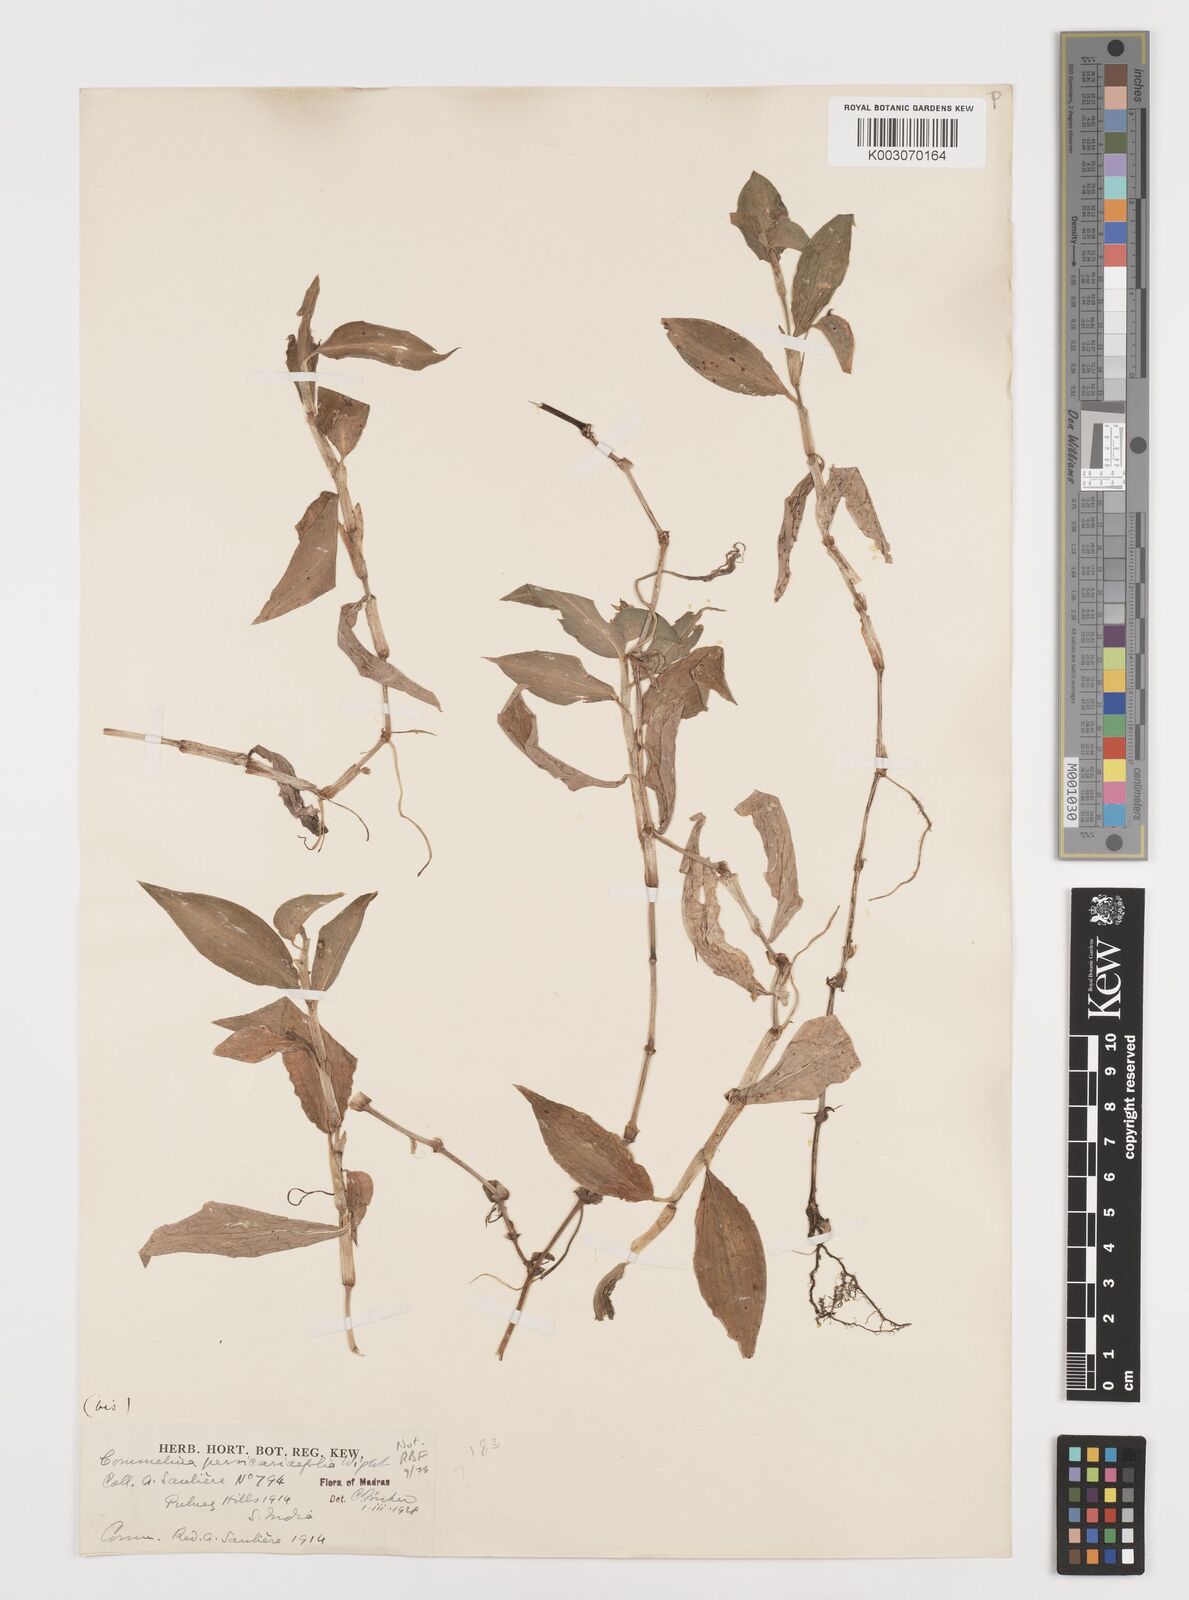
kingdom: Plantae
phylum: Tracheophyta
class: Liliopsida
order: Commelinales
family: Commelinaceae
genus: Commelina
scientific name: Commelina petersii
